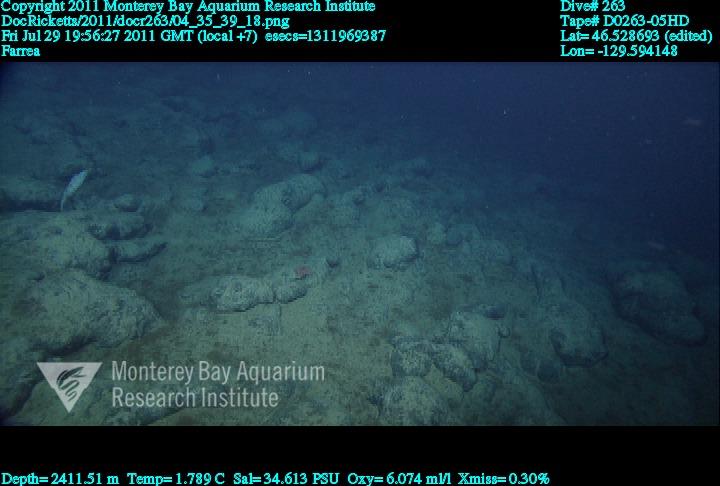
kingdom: Animalia
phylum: Porifera
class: Hexactinellida
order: Sceptrulophora
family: Farreidae
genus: Farrea
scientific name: Farrea
